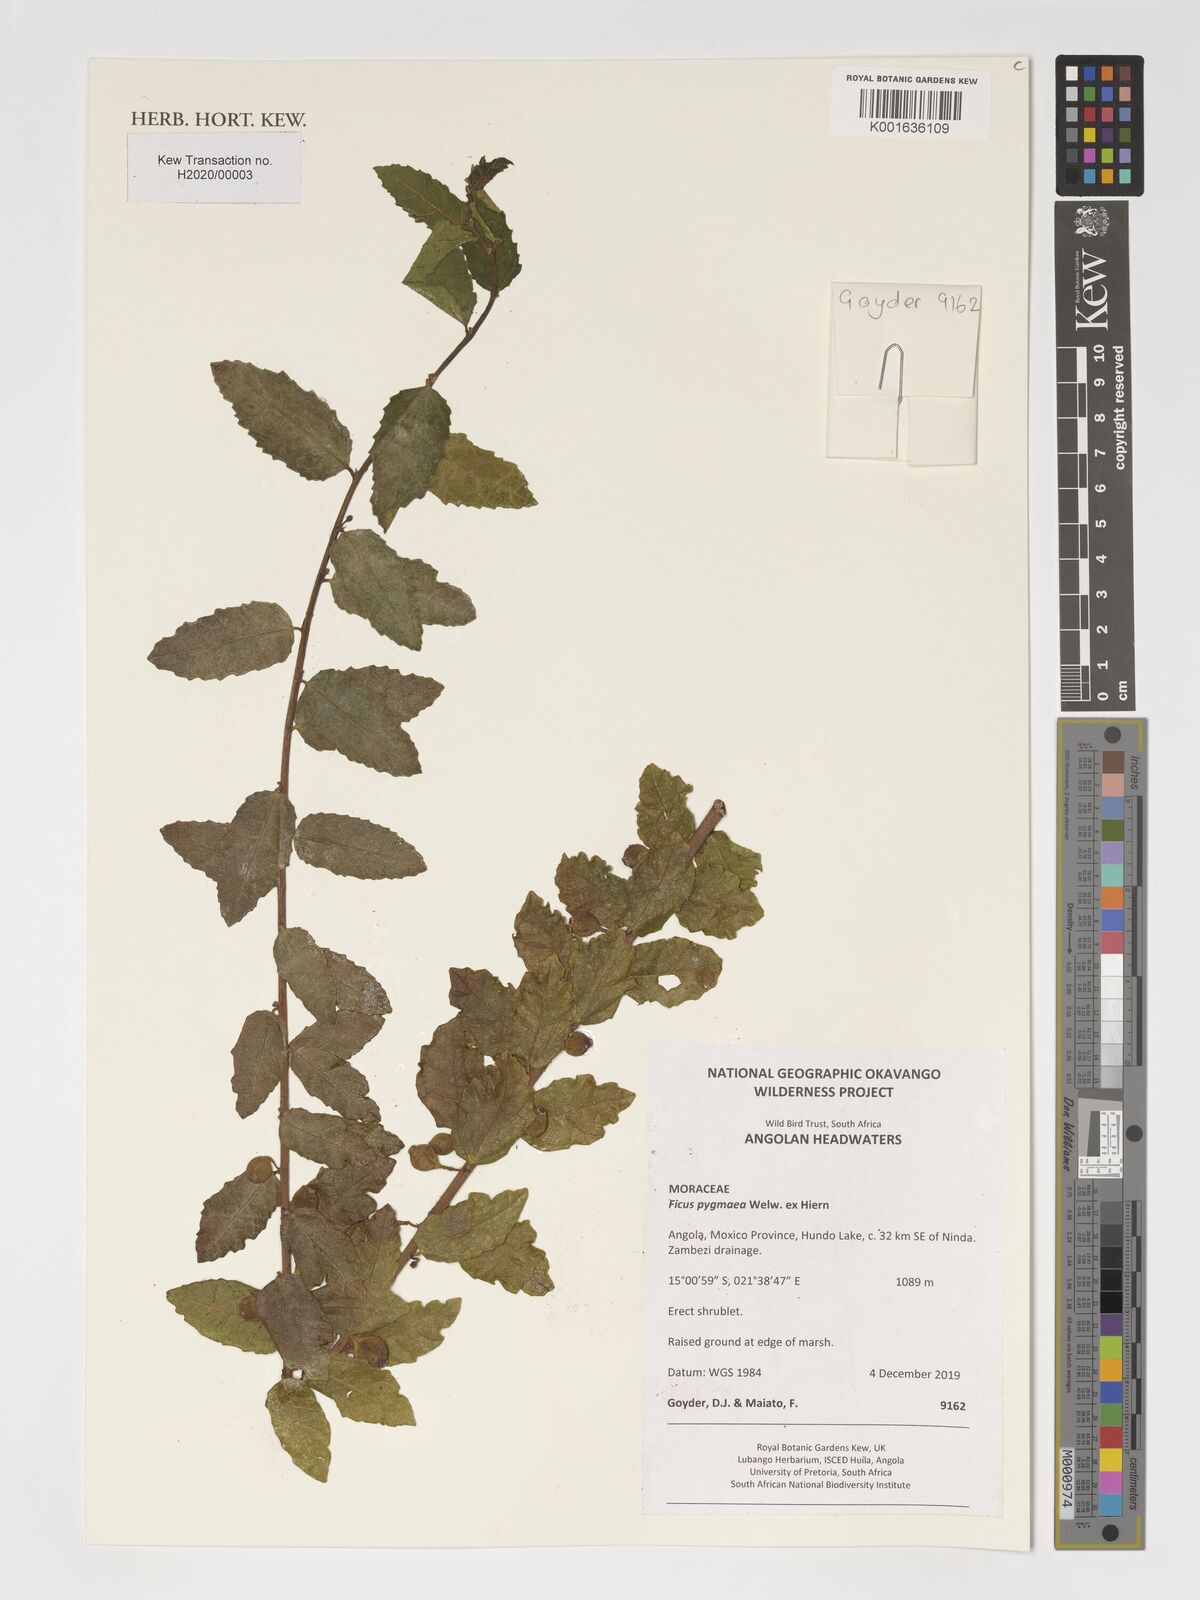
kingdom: Plantae
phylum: Tracheophyta
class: Magnoliopsida
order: Rosales
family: Moraceae
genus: Ficus
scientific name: Ficus pygmaea
